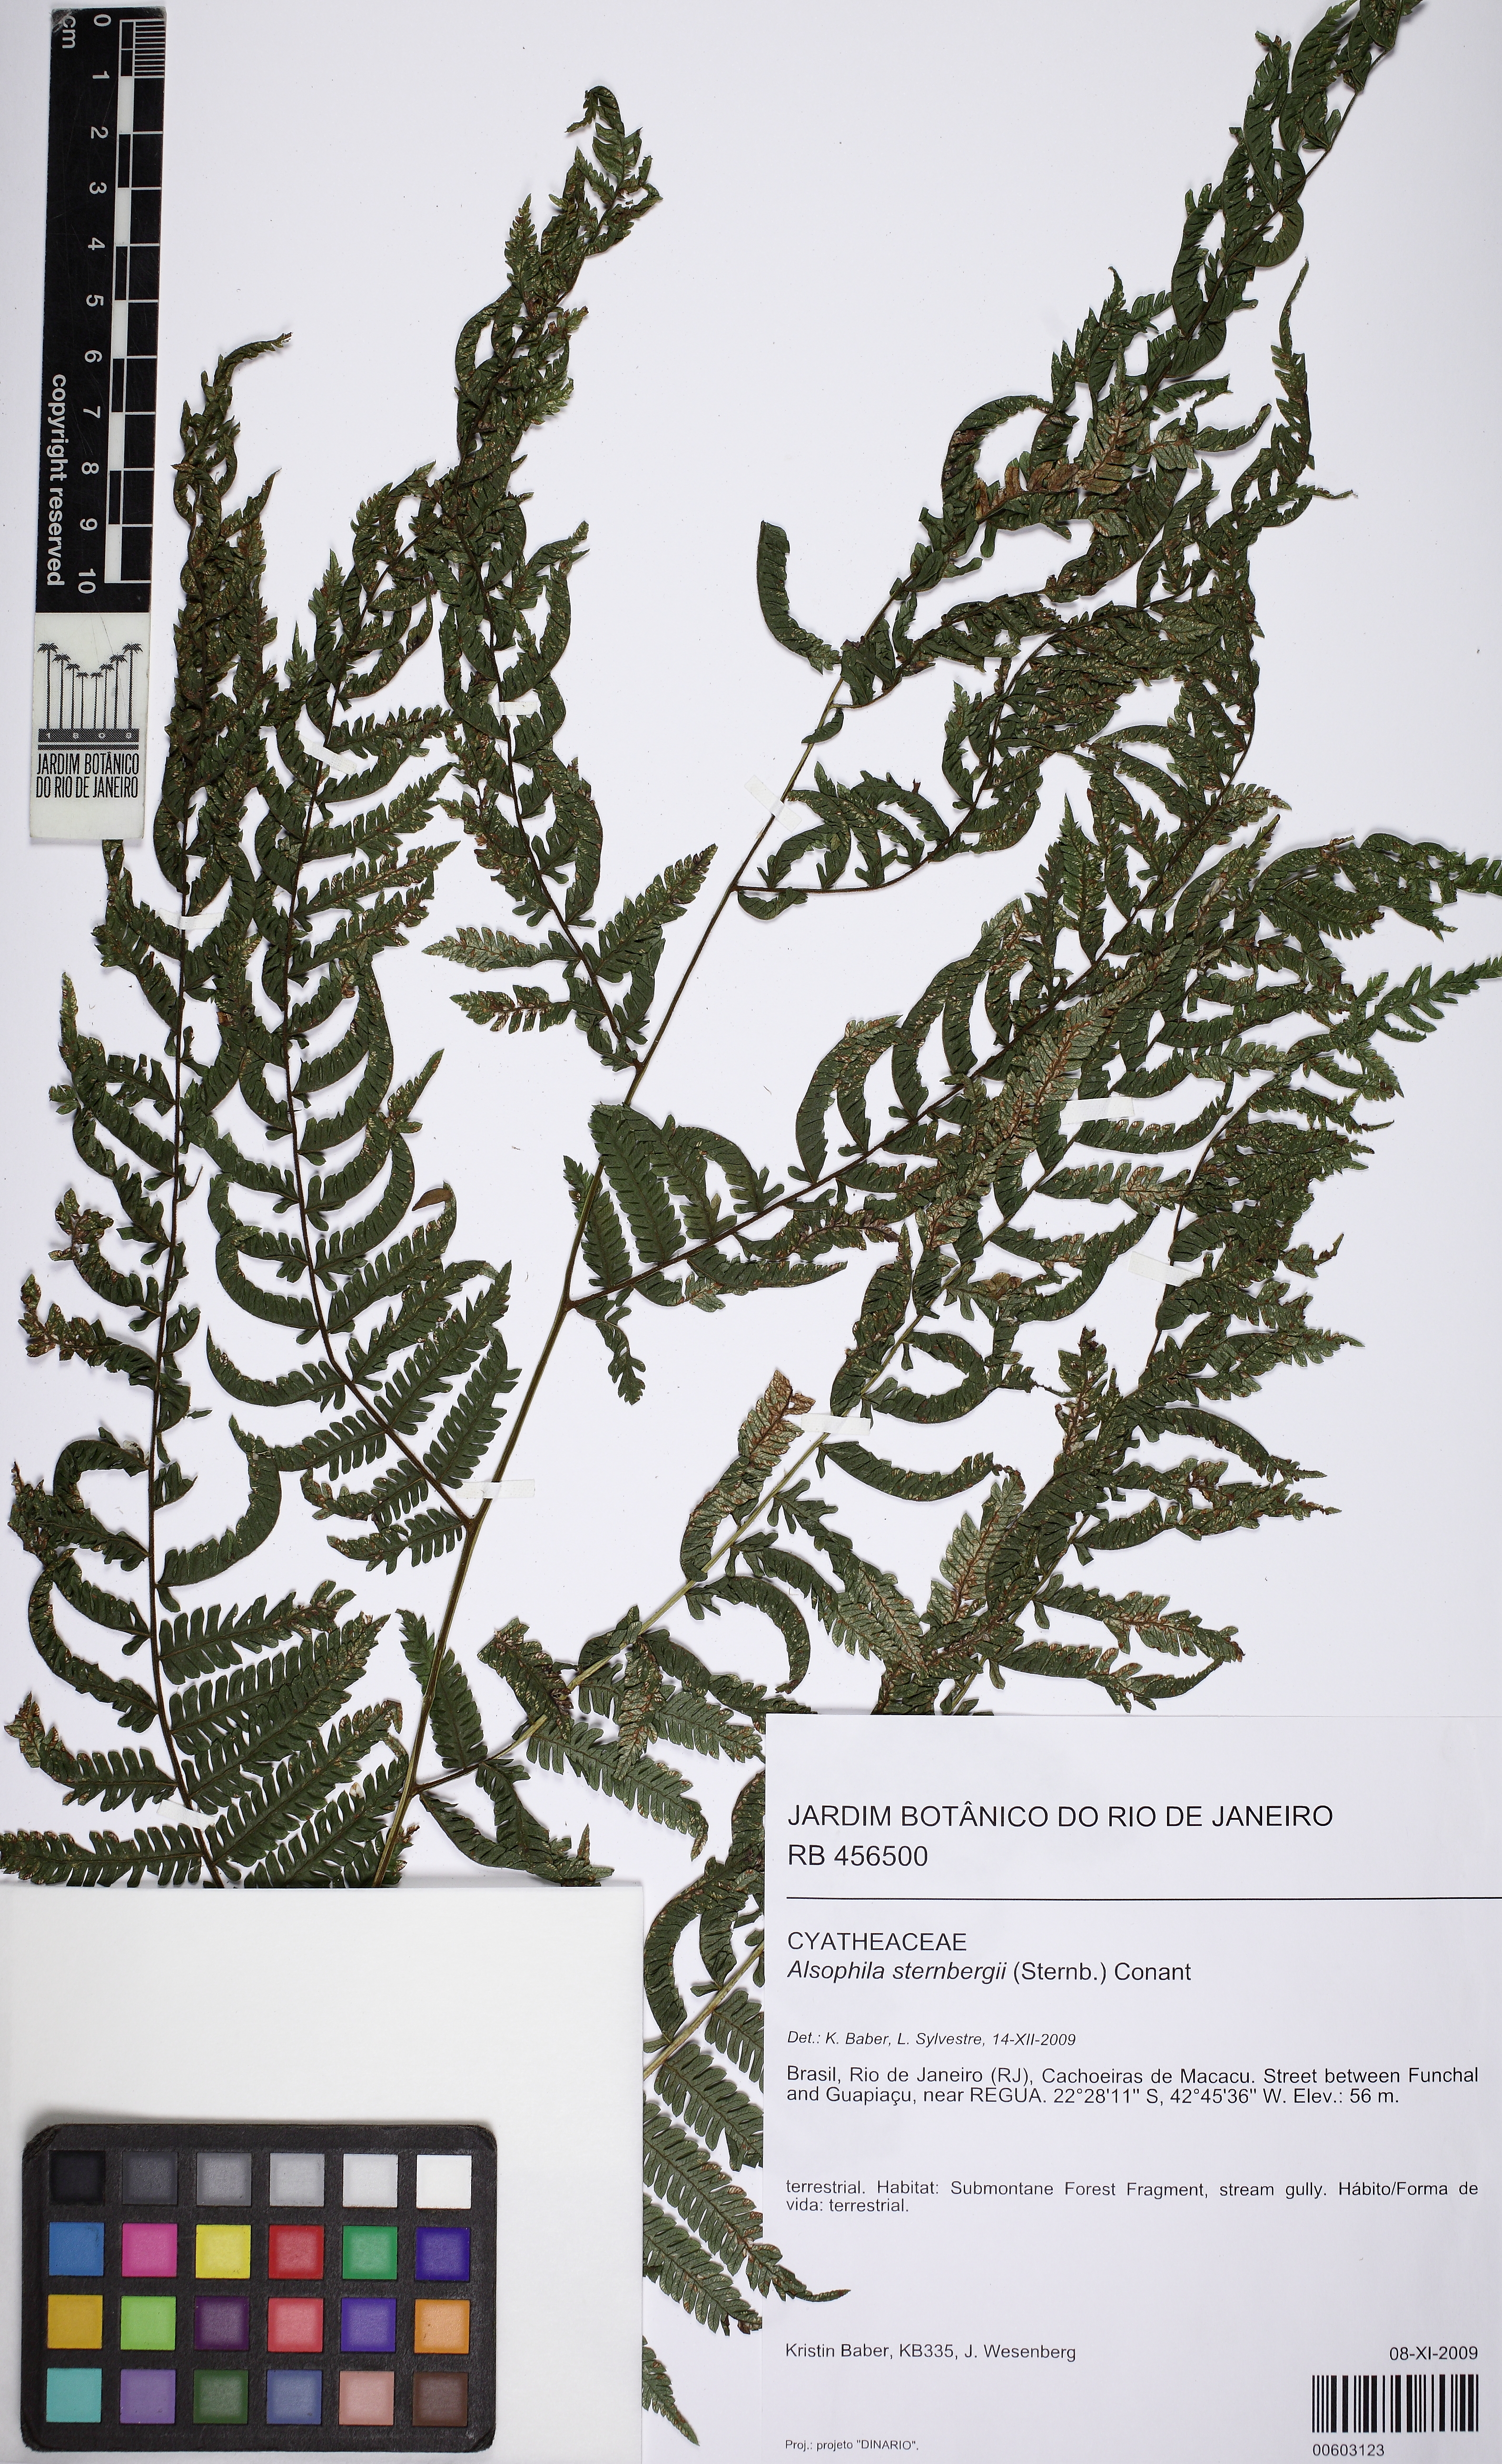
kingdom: Plantae
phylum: Tracheophyta
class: Polypodiopsida
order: Cyatheales
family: Cyatheaceae
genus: Alsophila
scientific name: Alsophila sternbergii
